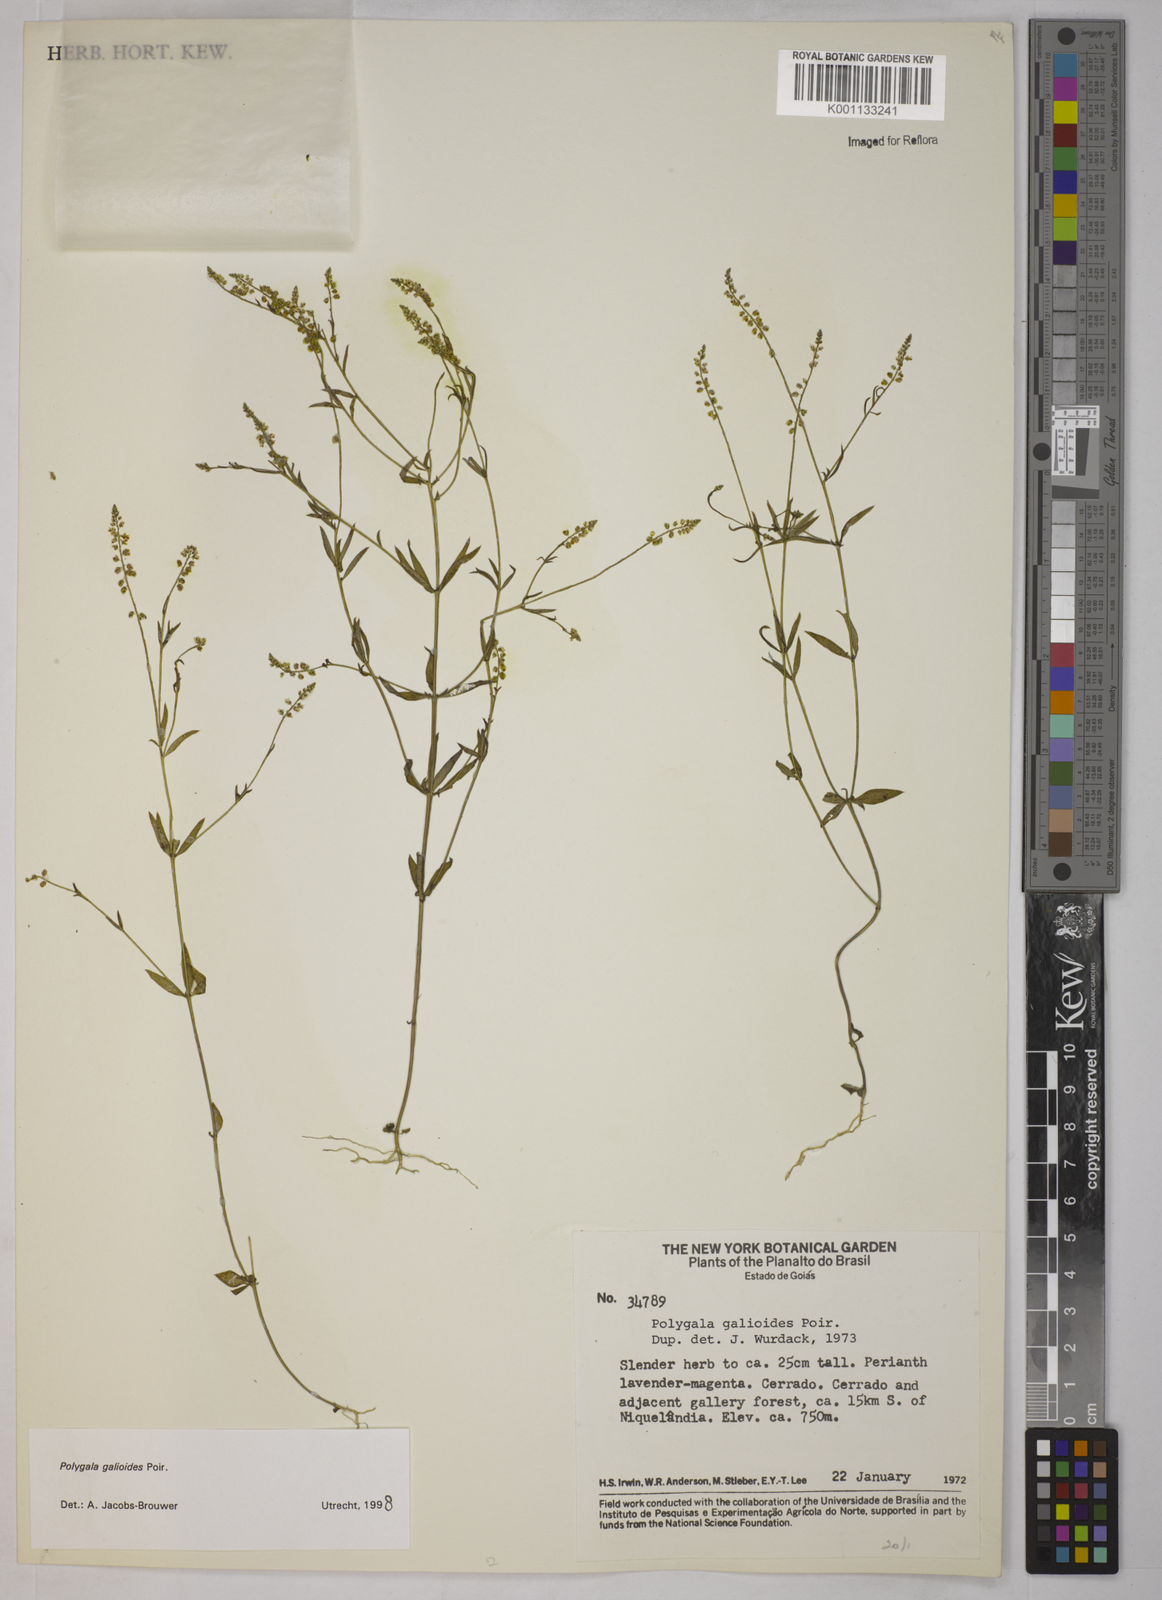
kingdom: Plantae
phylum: Tracheophyta
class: Magnoliopsida
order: Fabales
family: Polygalaceae
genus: Polygala
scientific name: Polygala galioides
